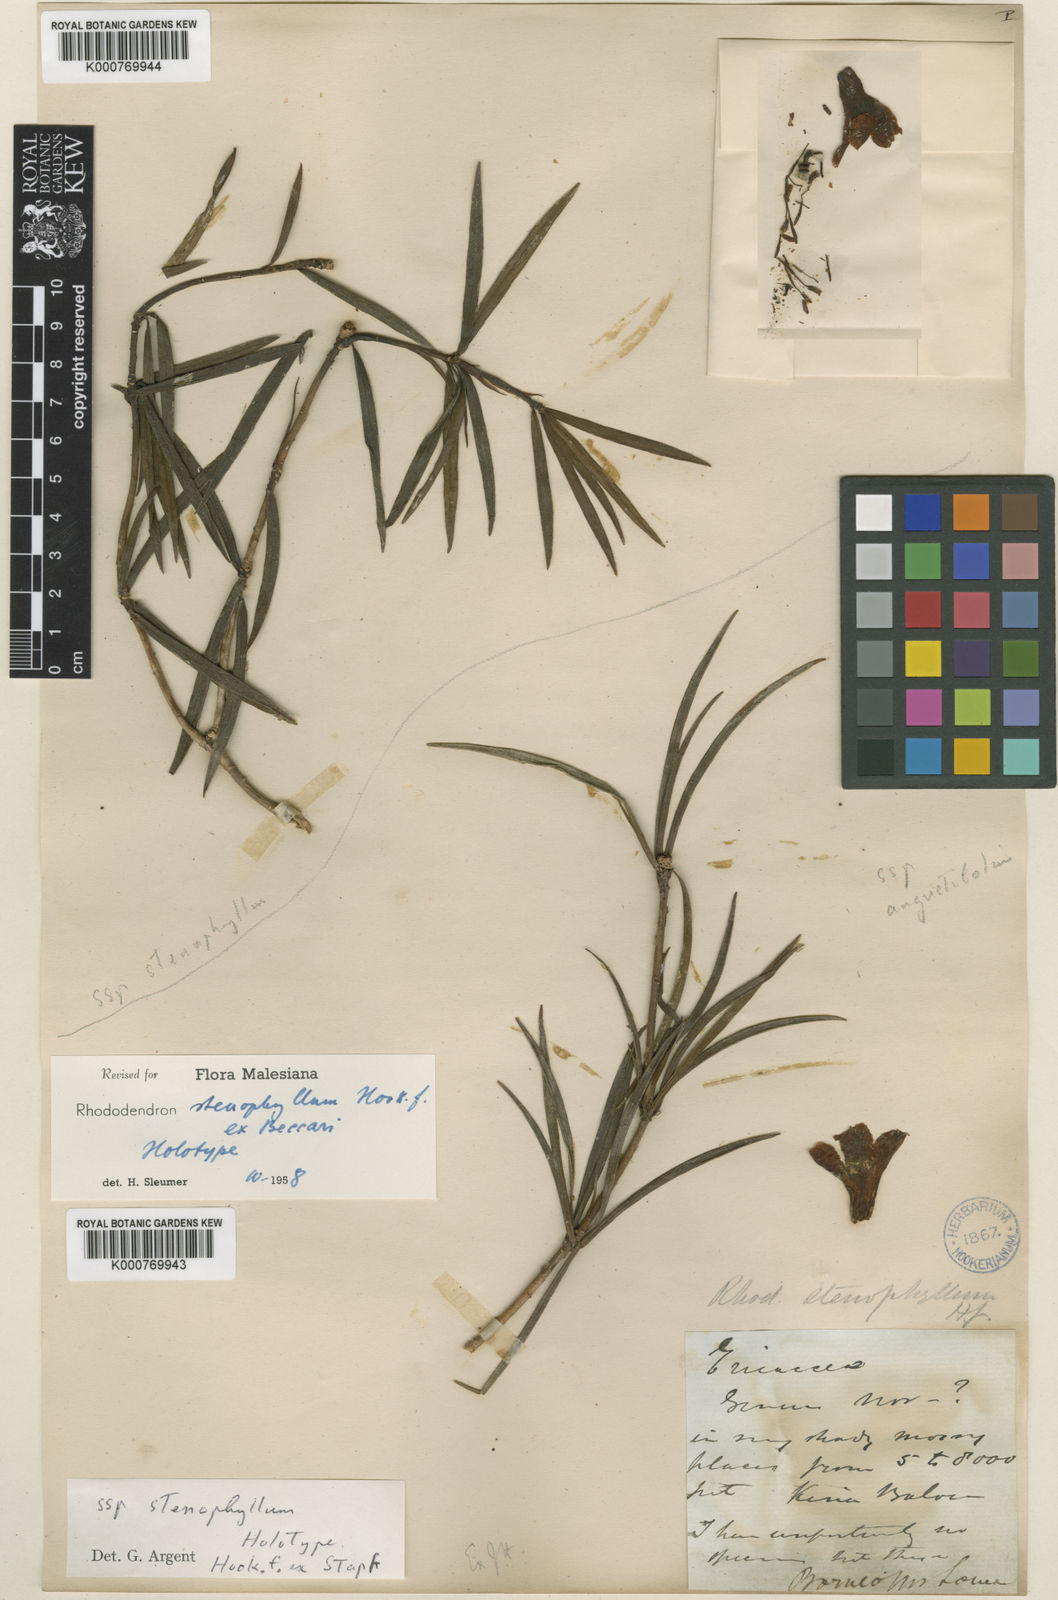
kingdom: Plantae
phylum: Tracheophyta
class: Magnoliopsida
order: Ericales
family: Ericaceae
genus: Rhododendron
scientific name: Rhododendron
